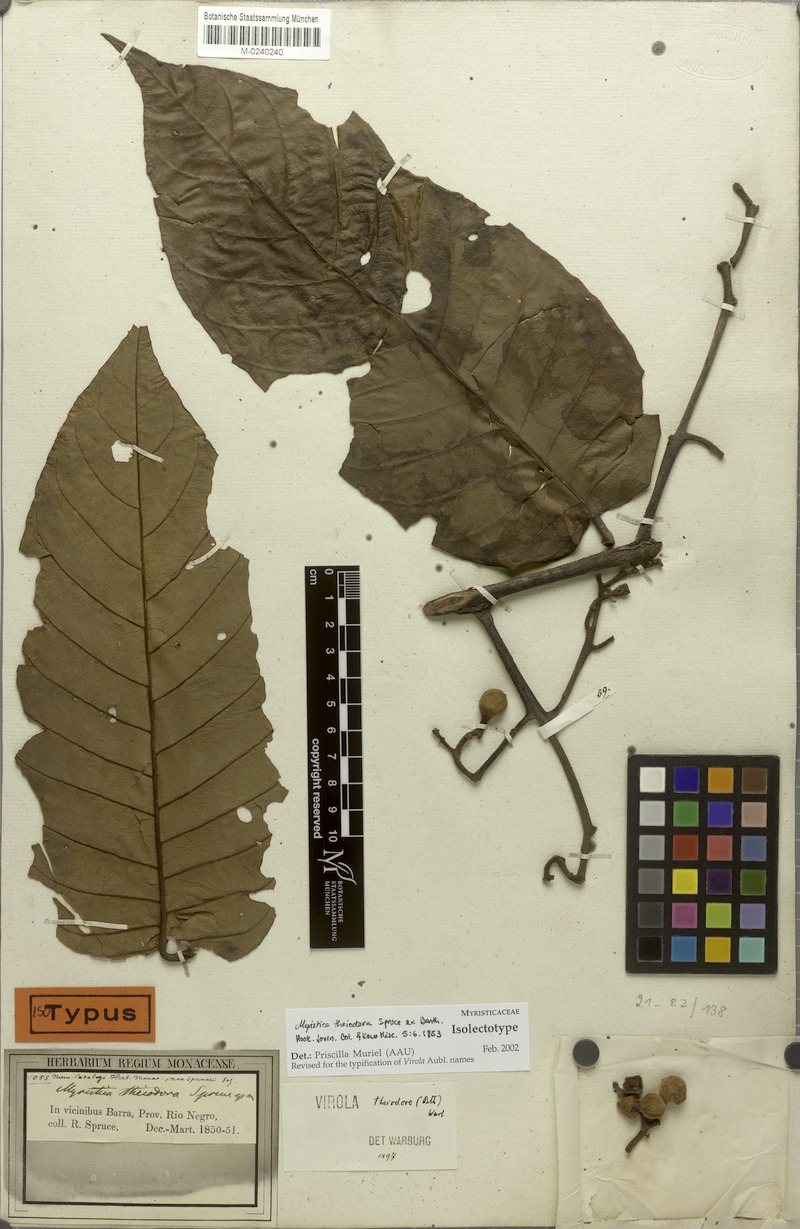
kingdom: Plantae
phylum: Tracheophyta
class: Magnoliopsida
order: Magnoliales
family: Myristicaceae
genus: Virola
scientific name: Virola theiodora
